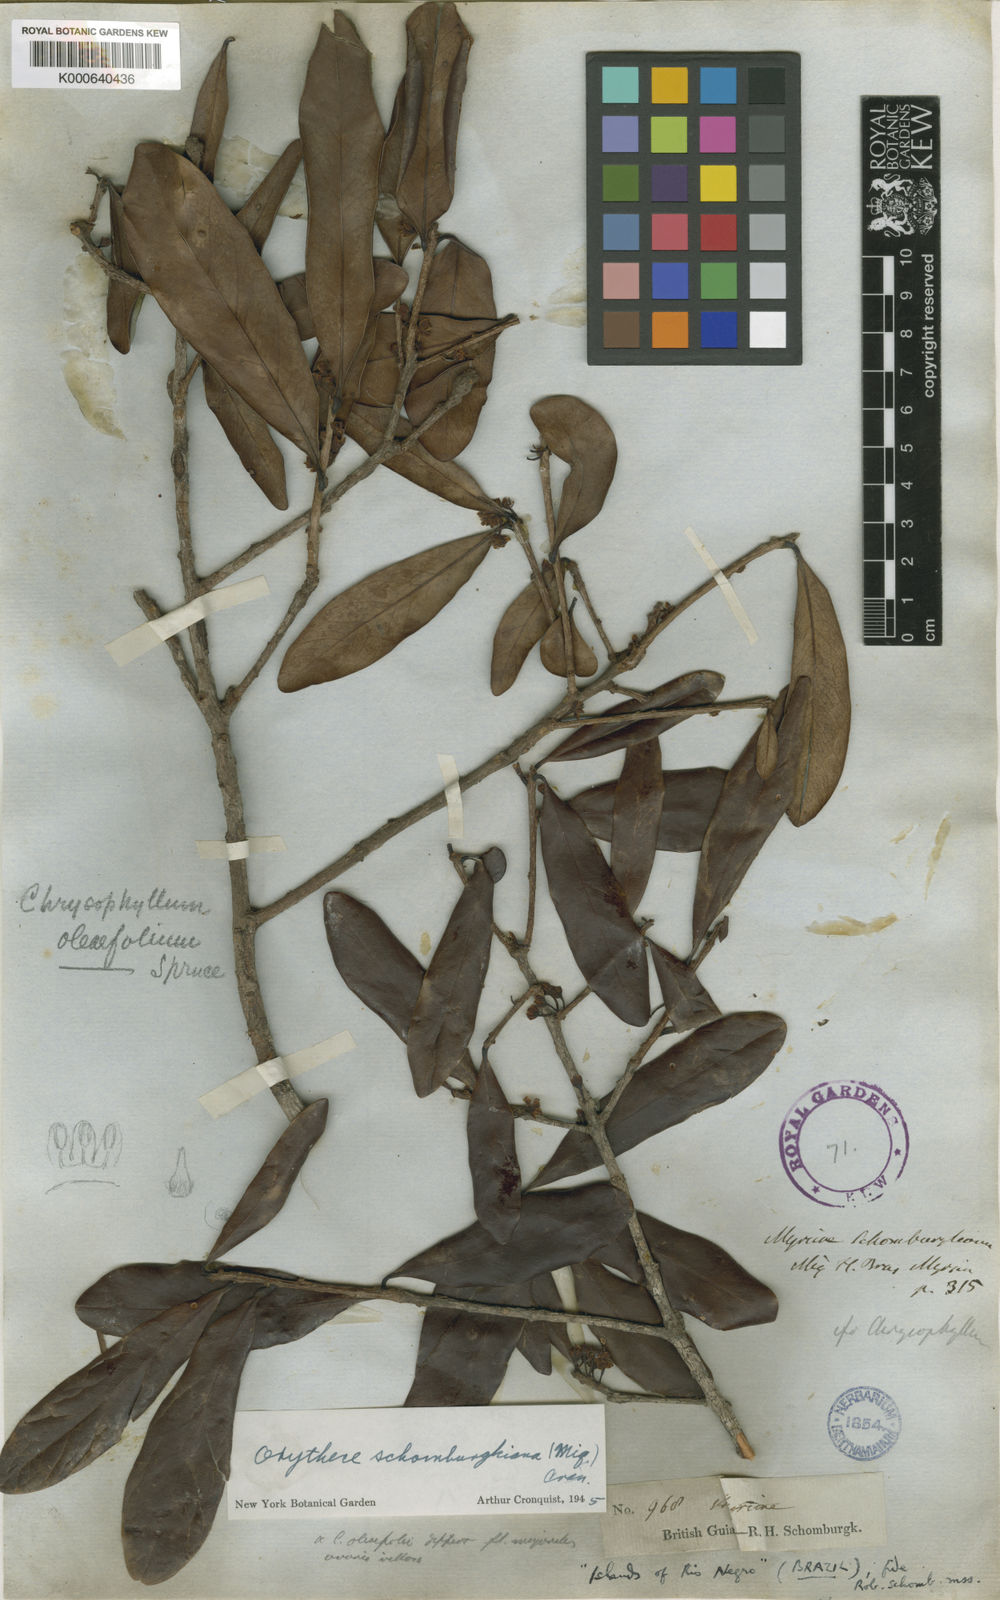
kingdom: Plantae
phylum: Tracheophyta
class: Magnoliopsida
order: Ericales
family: Sapotaceae
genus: Elaeoluma
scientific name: Elaeoluma schomburgkiana
